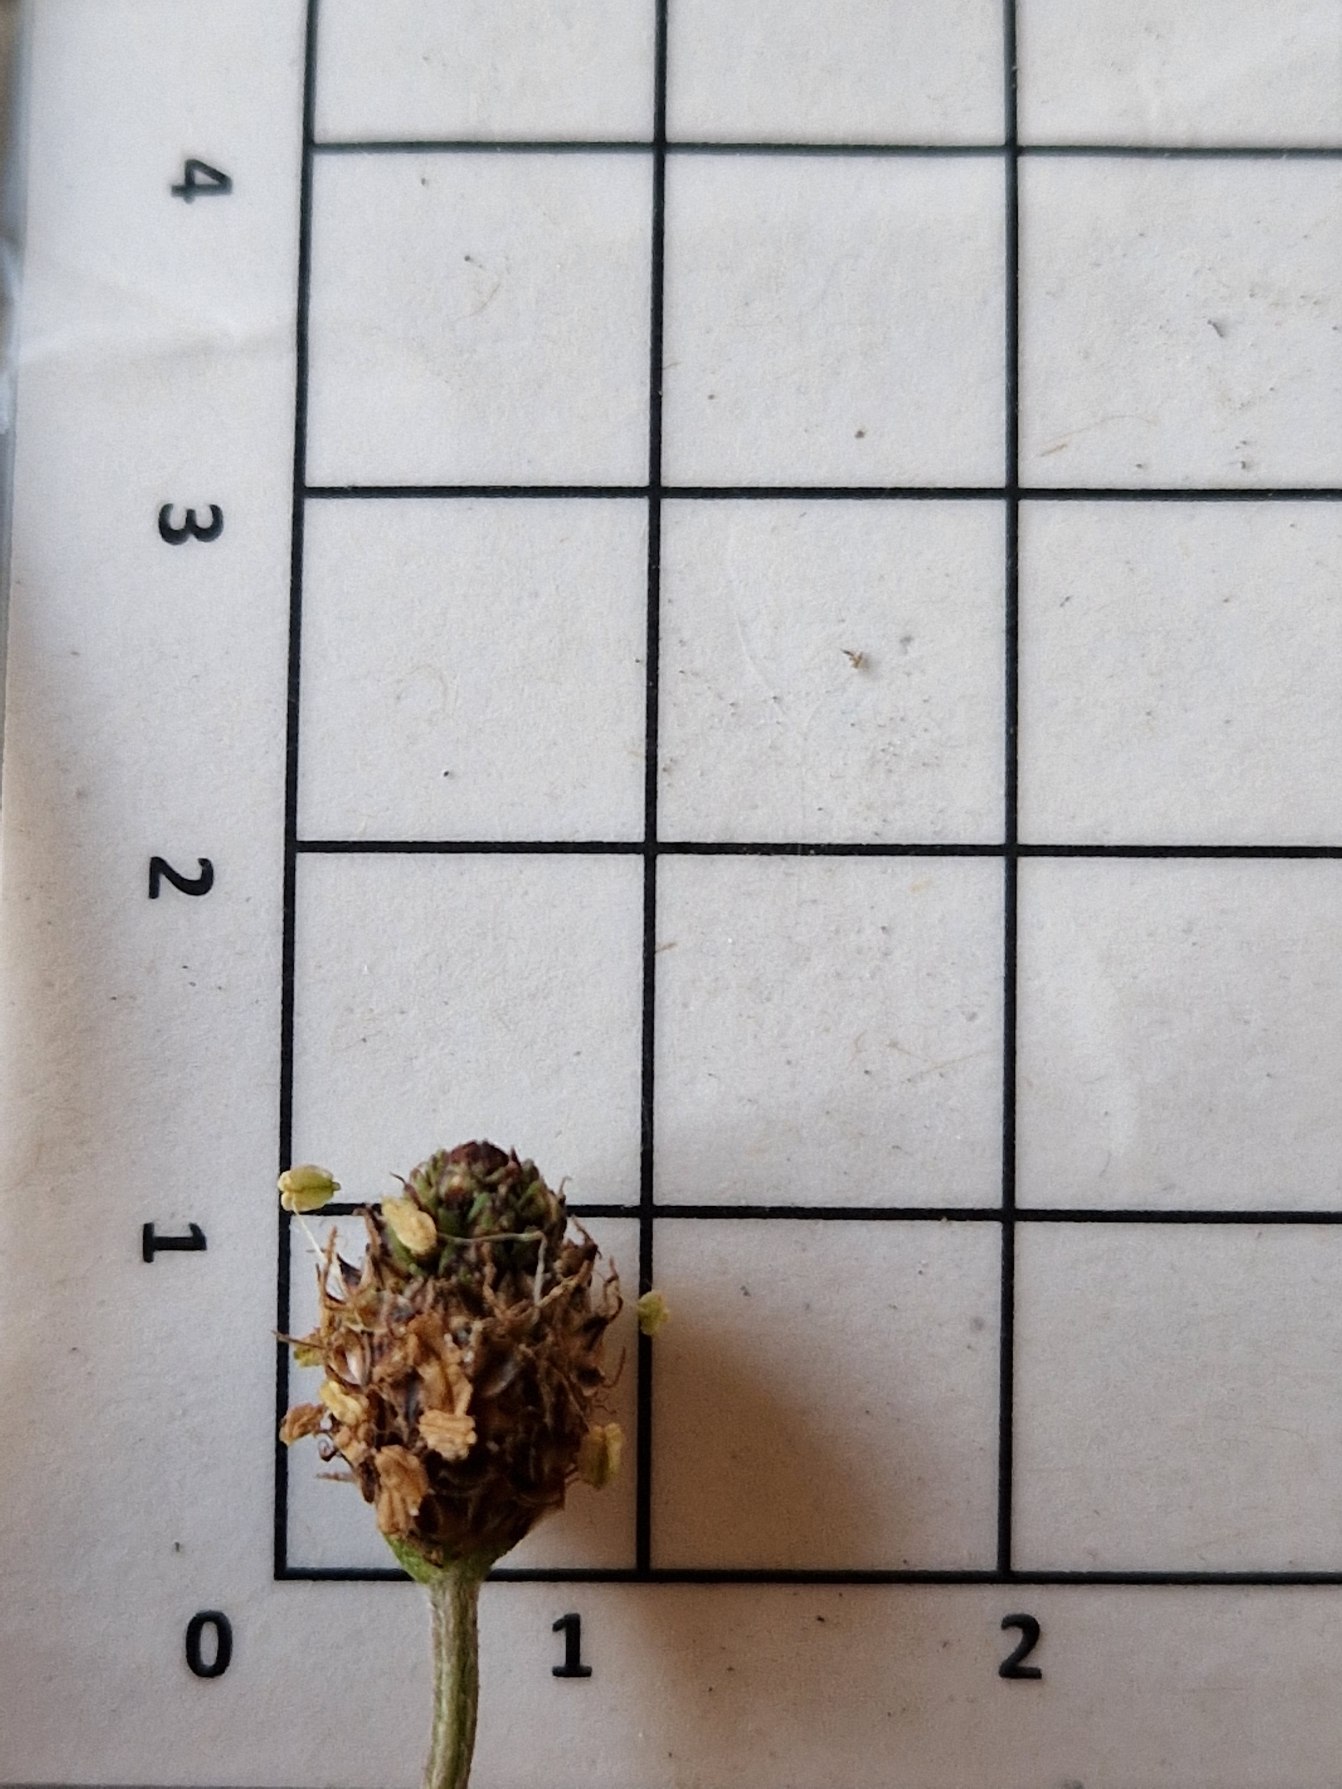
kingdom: Plantae
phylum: Tracheophyta
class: Magnoliopsida
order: Lamiales
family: Plantaginaceae
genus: Plantago
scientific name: Plantago lanceolata
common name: Lancet-vejbred
